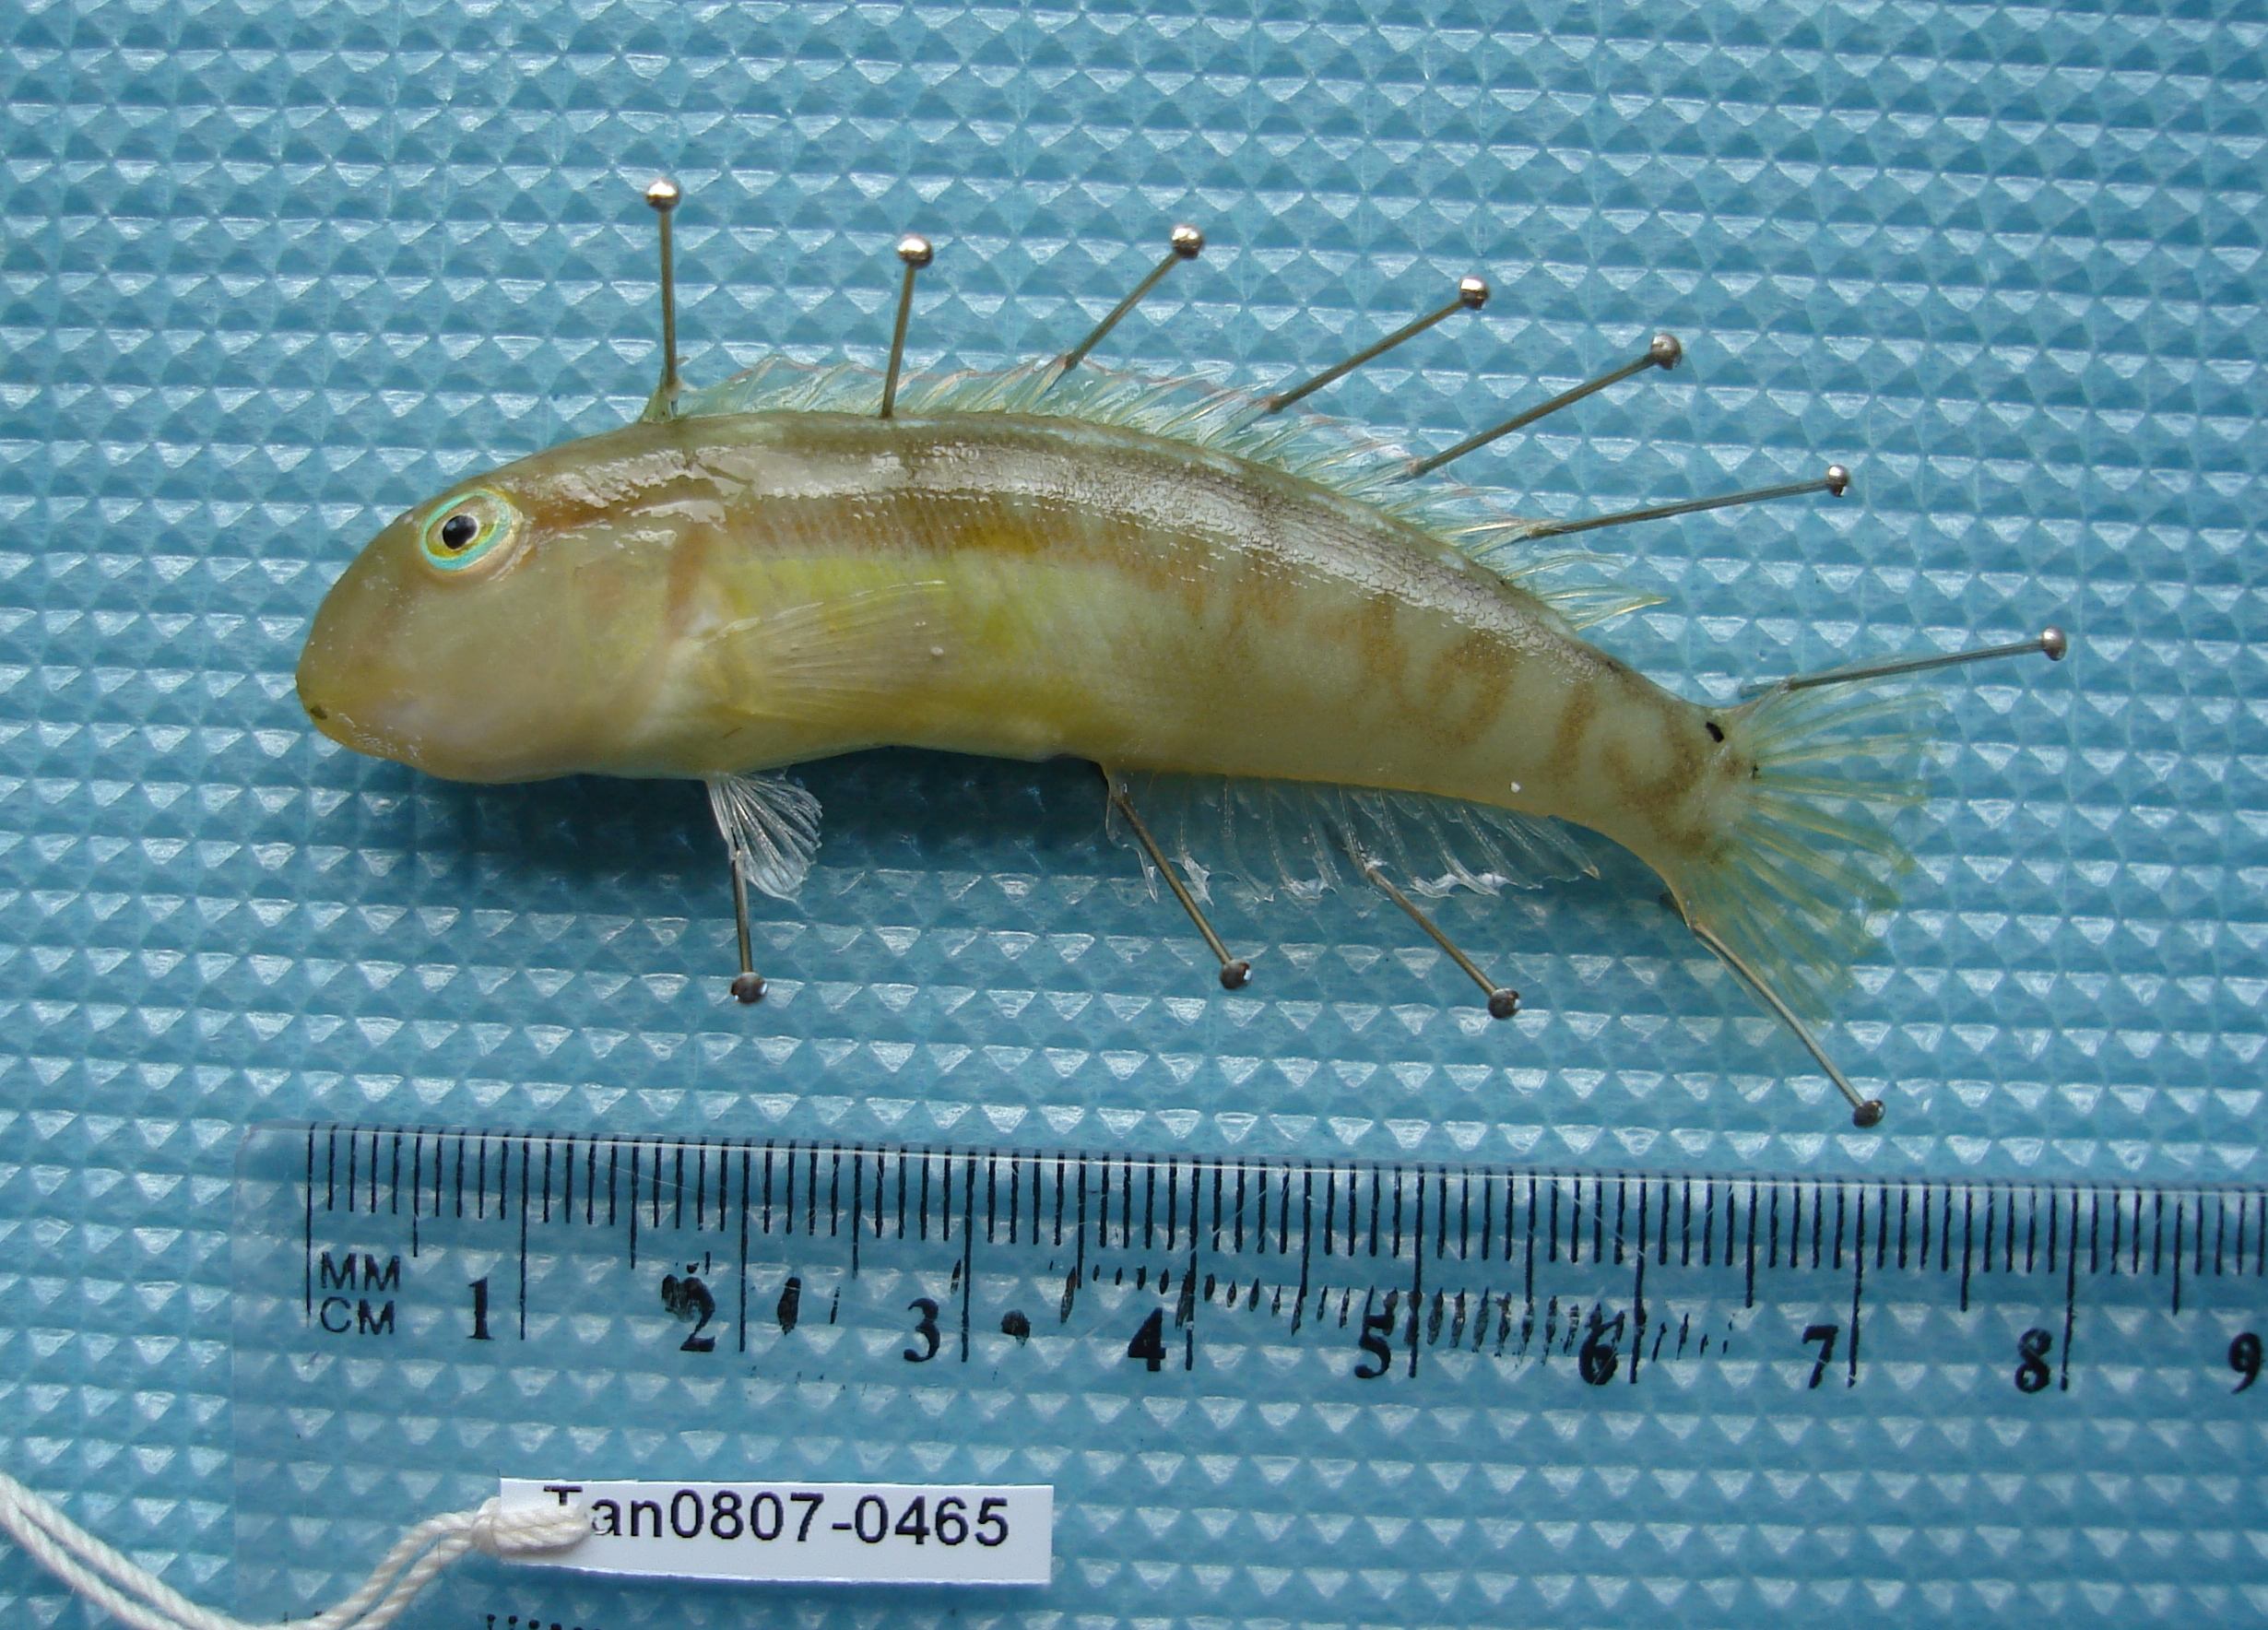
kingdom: Animalia
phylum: Chordata
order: Perciformes
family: Labridae
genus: Cymolutes
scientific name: Cymolutes praetextatus
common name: Knife razorfish
